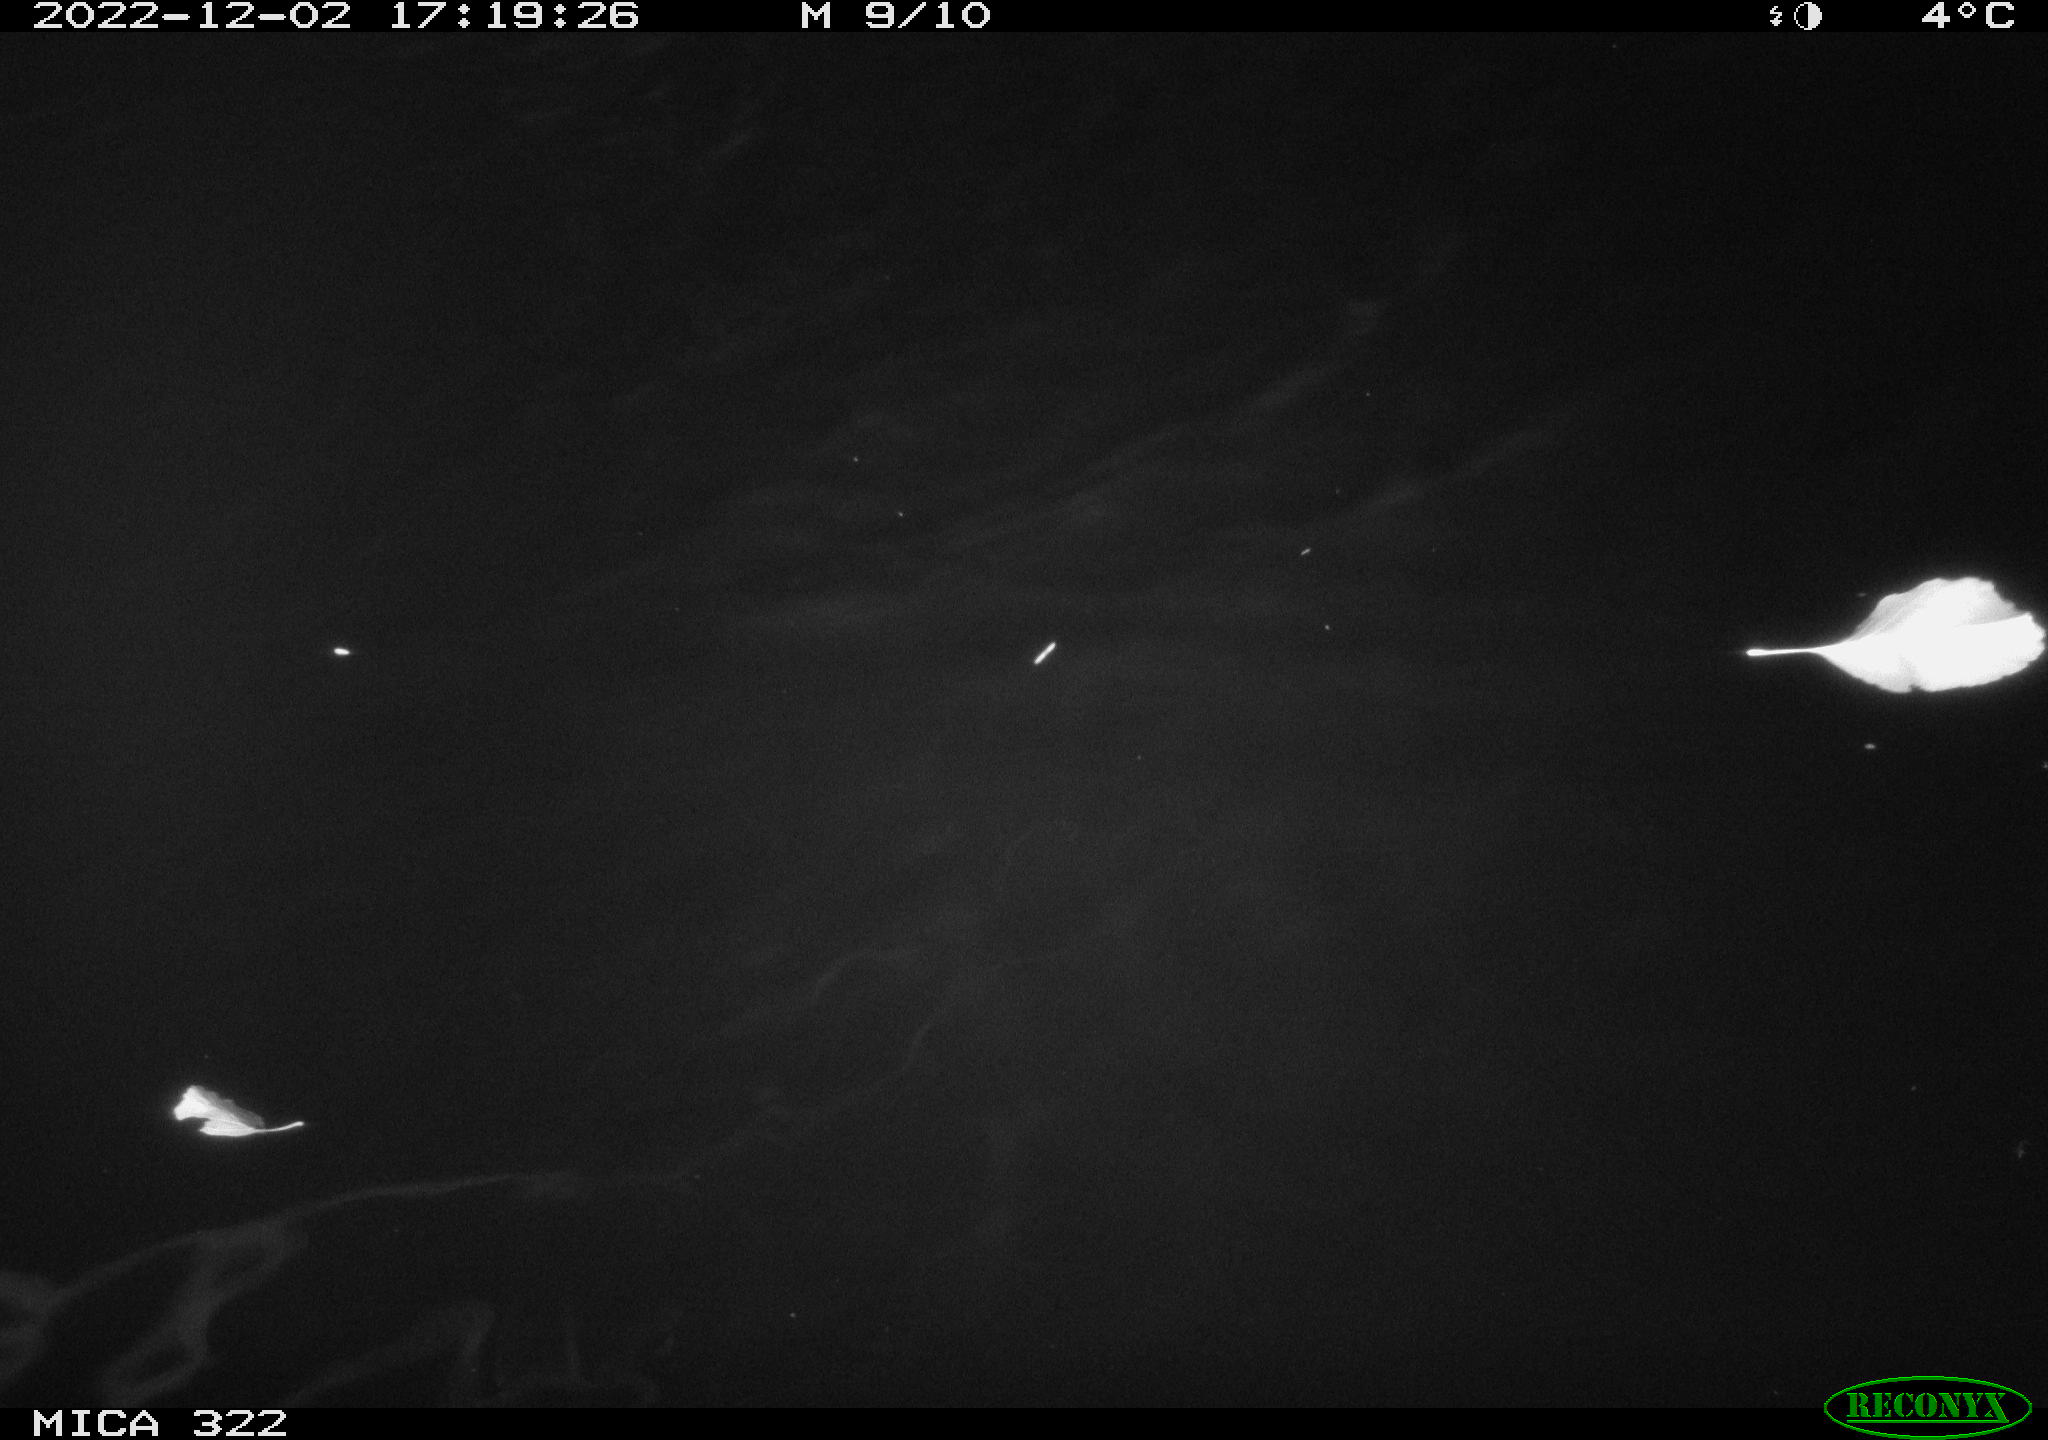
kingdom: Animalia
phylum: Chordata
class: Mammalia
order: Rodentia
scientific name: Rodentia
